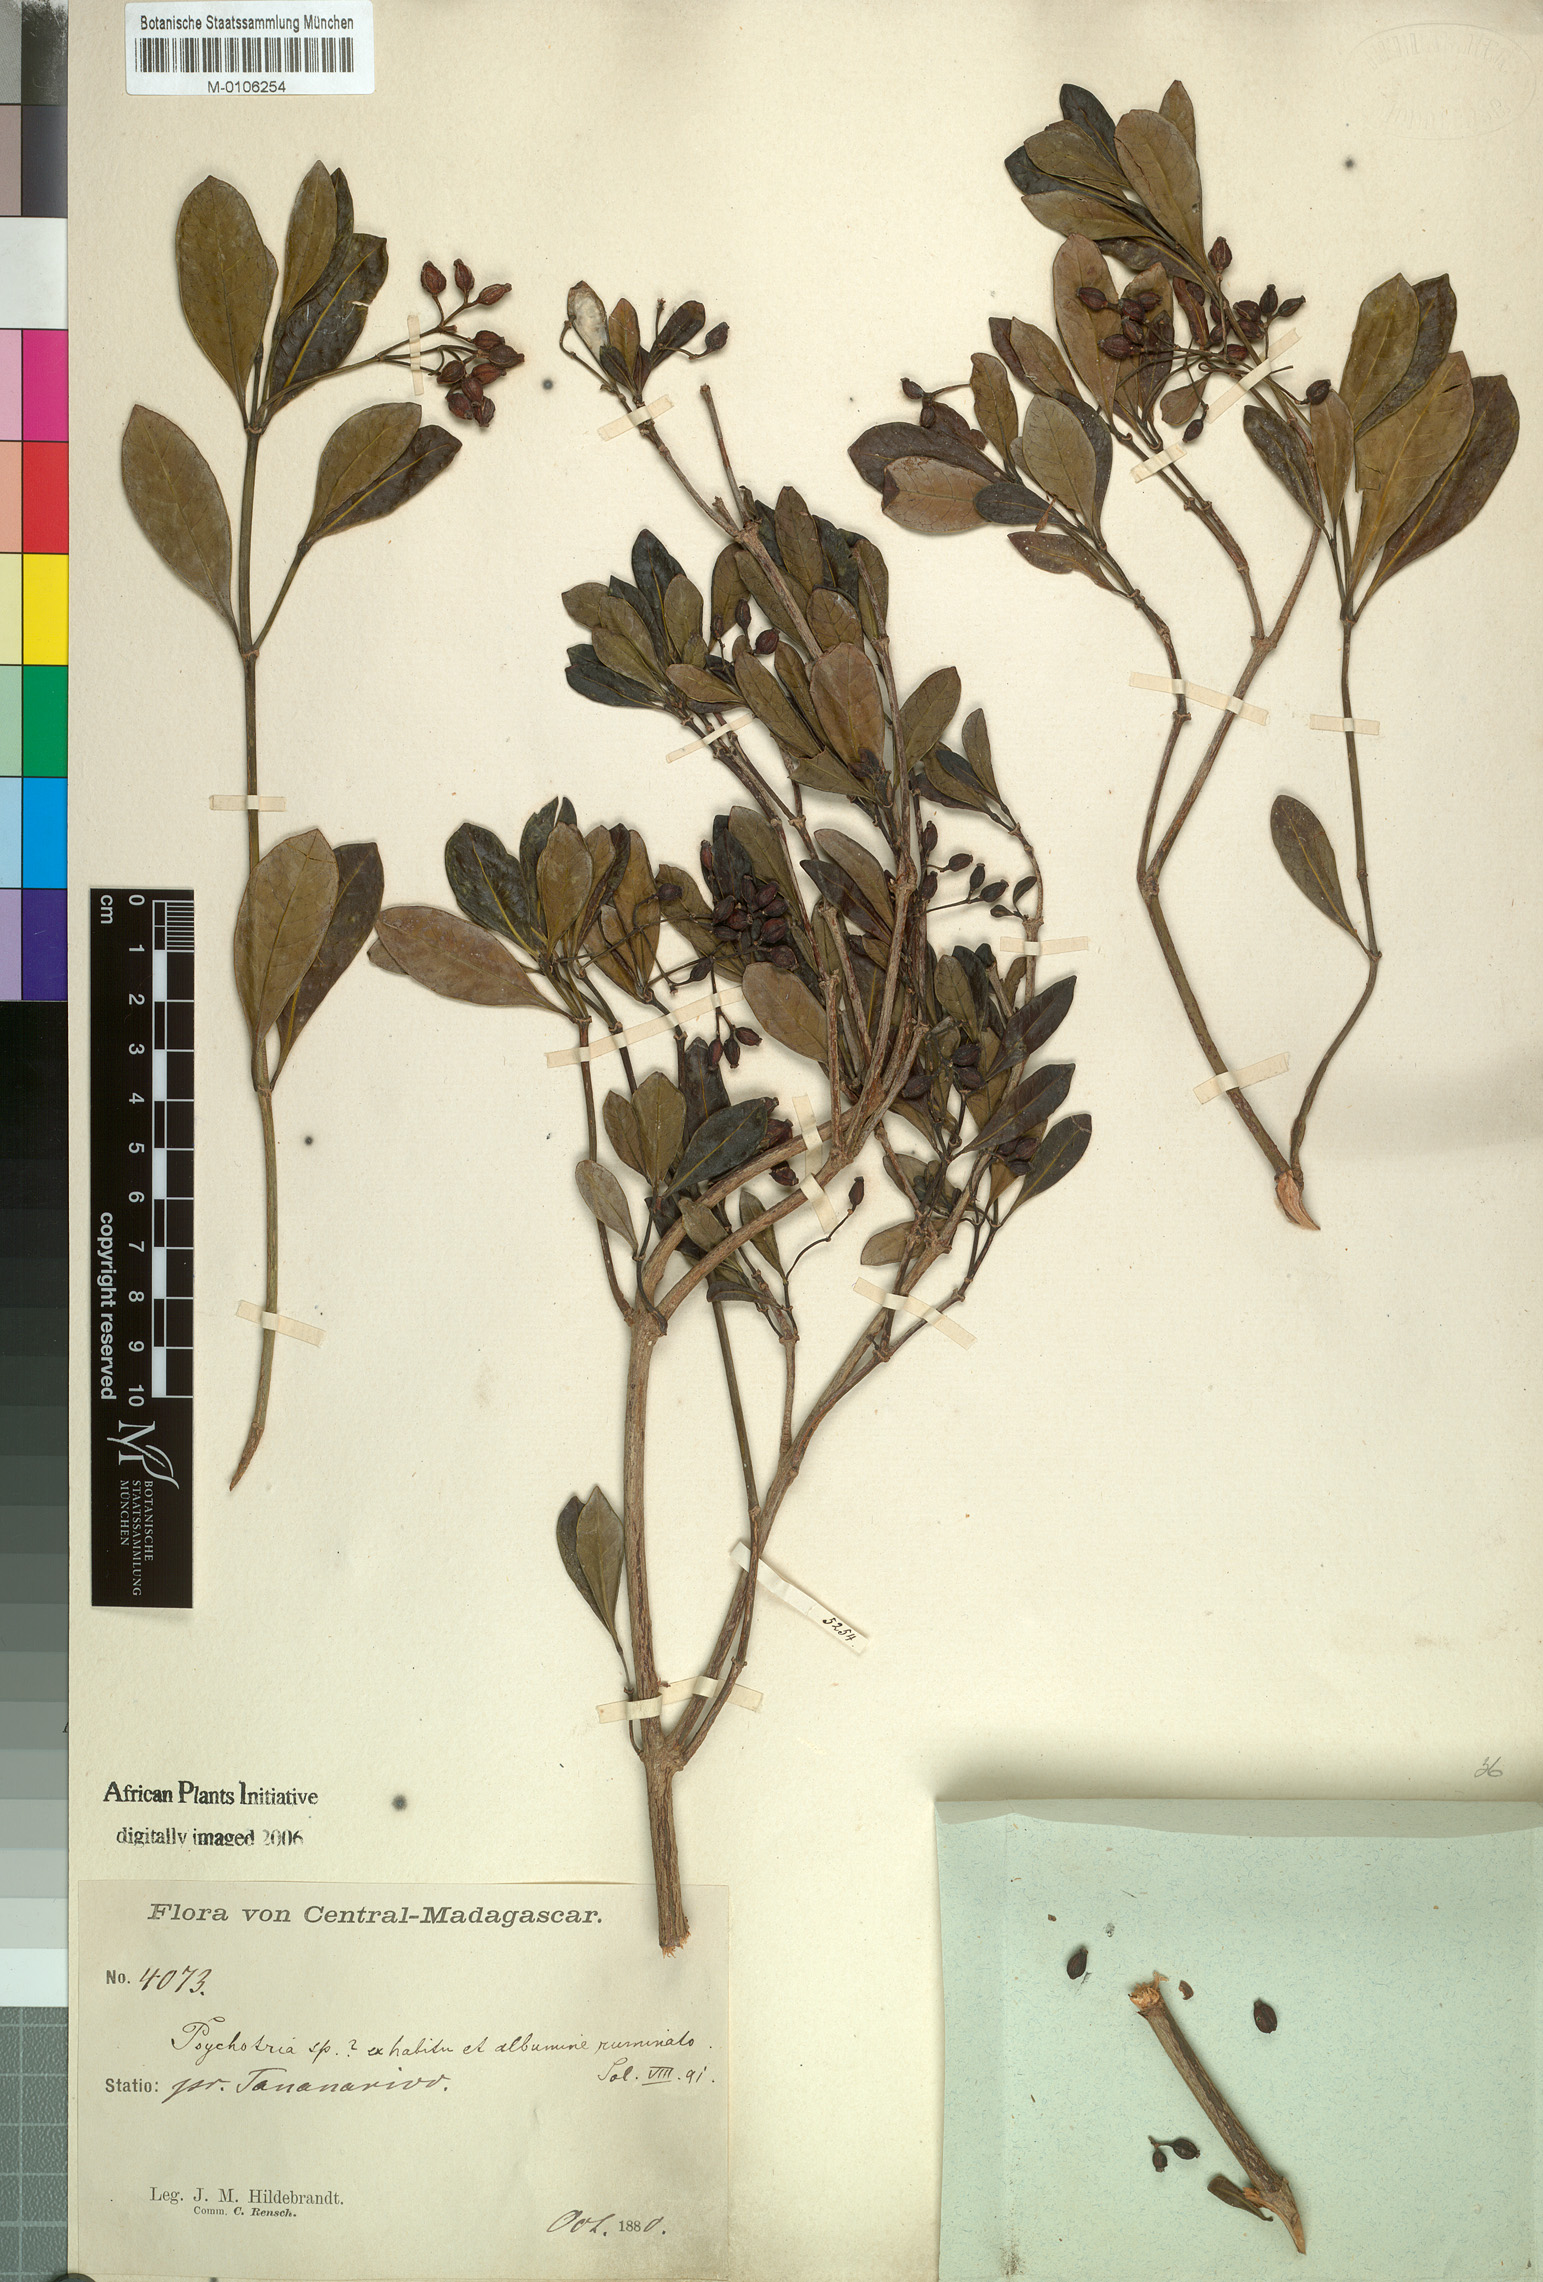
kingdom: Plantae
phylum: Tracheophyta
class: Magnoliopsida
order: Gentianales
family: Rubiaceae
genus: Psychotria
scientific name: Psychotria retiphlebia
